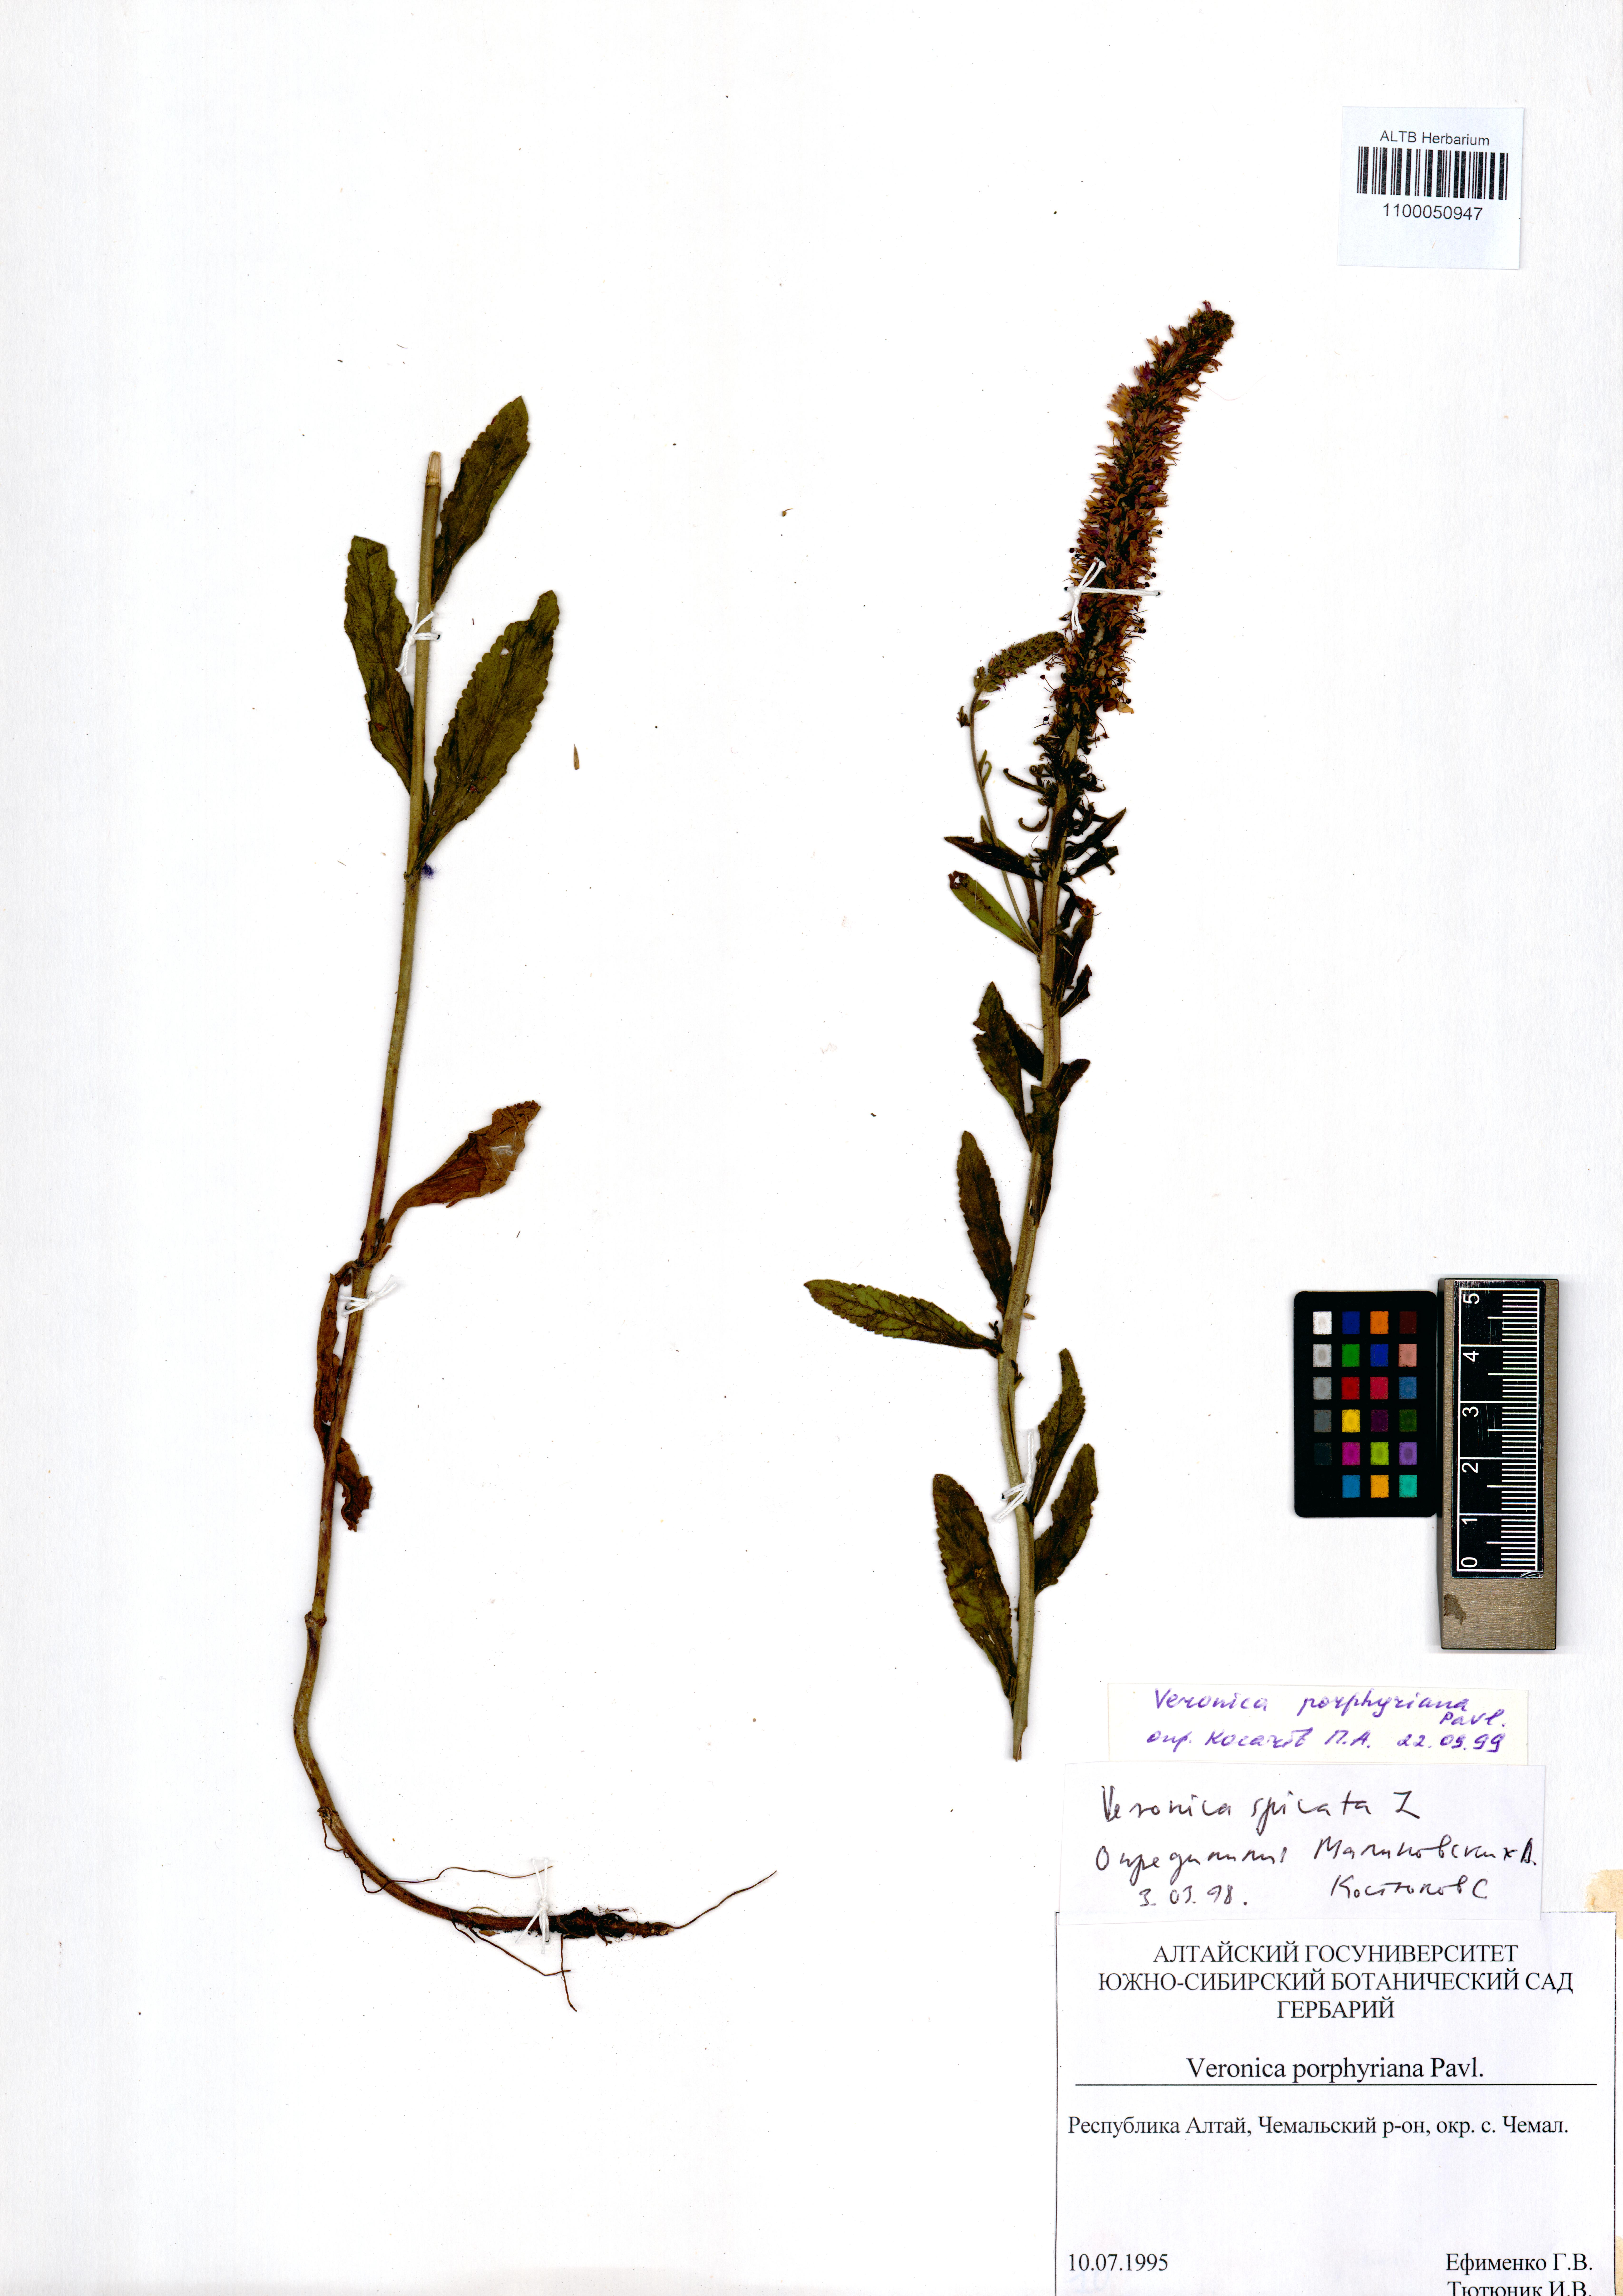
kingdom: Plantae
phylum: Tracheophyta
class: Magnoliopsida
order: Lamiales
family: Plantaginaceae
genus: Veronica
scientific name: Veronica porphyriana
